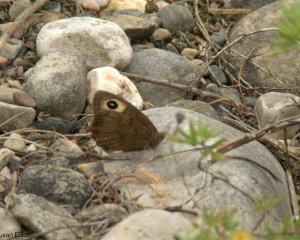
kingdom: Animalia
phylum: Arthropoda
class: Insecta
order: Lepidoptera
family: Nymphalidae
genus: Cercyonis
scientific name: Cercyonis pegala
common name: Common Wood-Nymph
